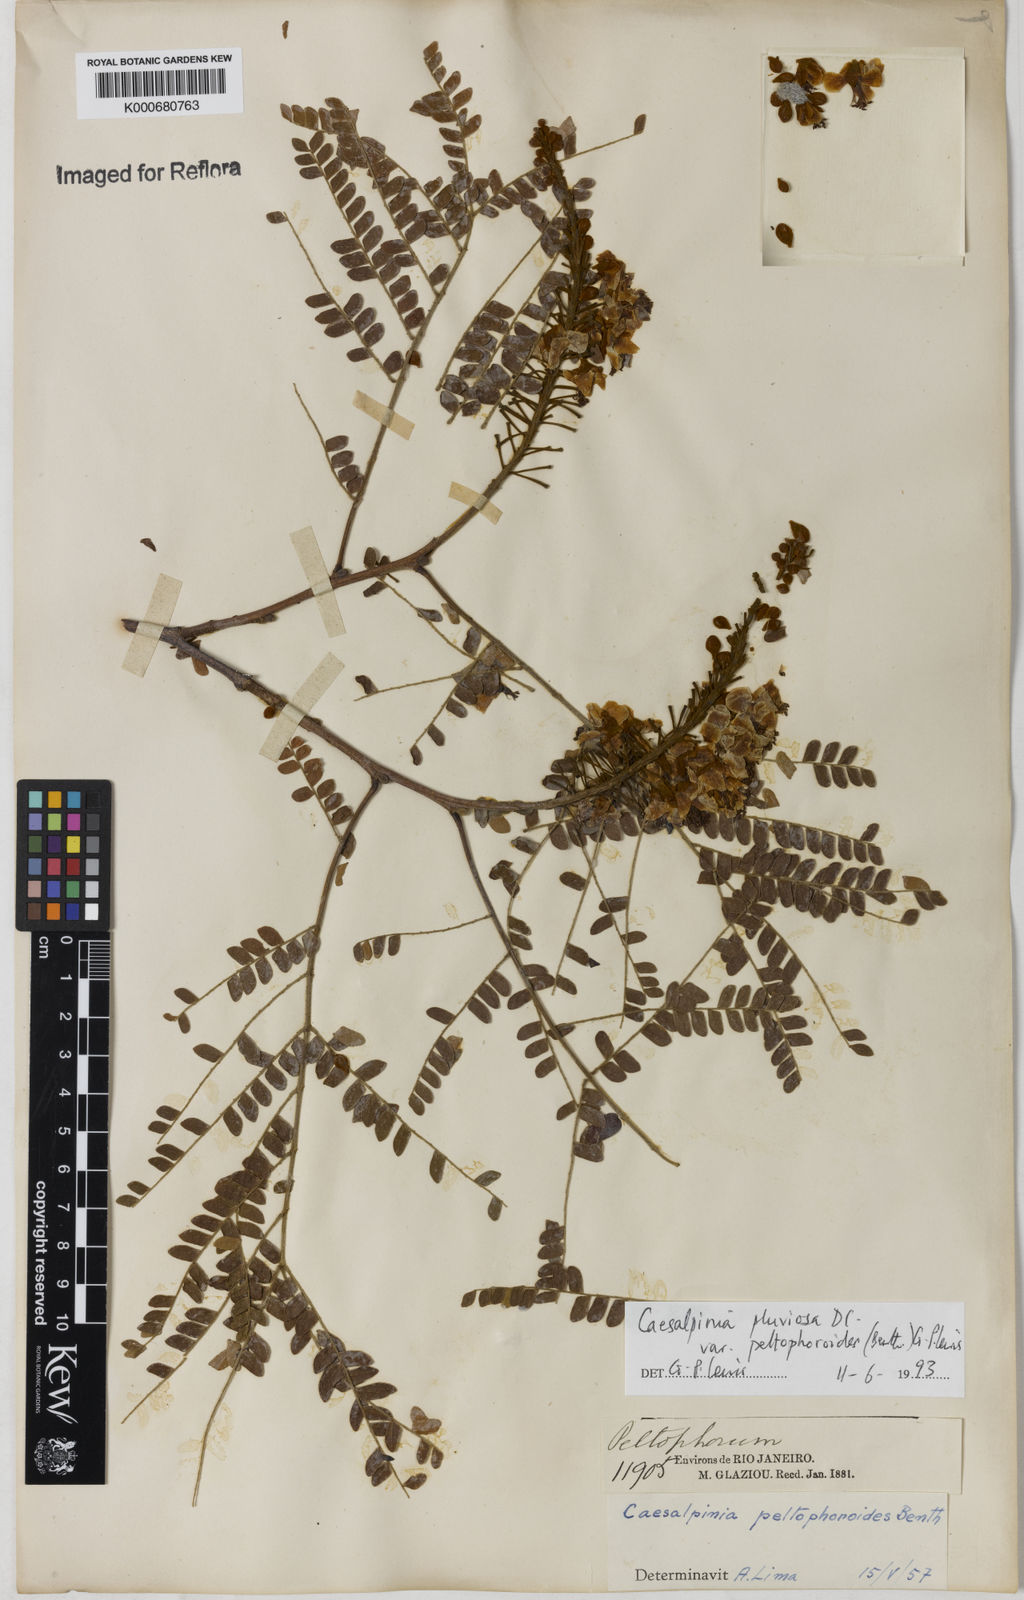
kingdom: Plantae
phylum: Tracheophyta
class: Magnoliopsida
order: Fabales
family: Fabaceae
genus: Cenostigma
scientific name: Cenostigma pluviosum
